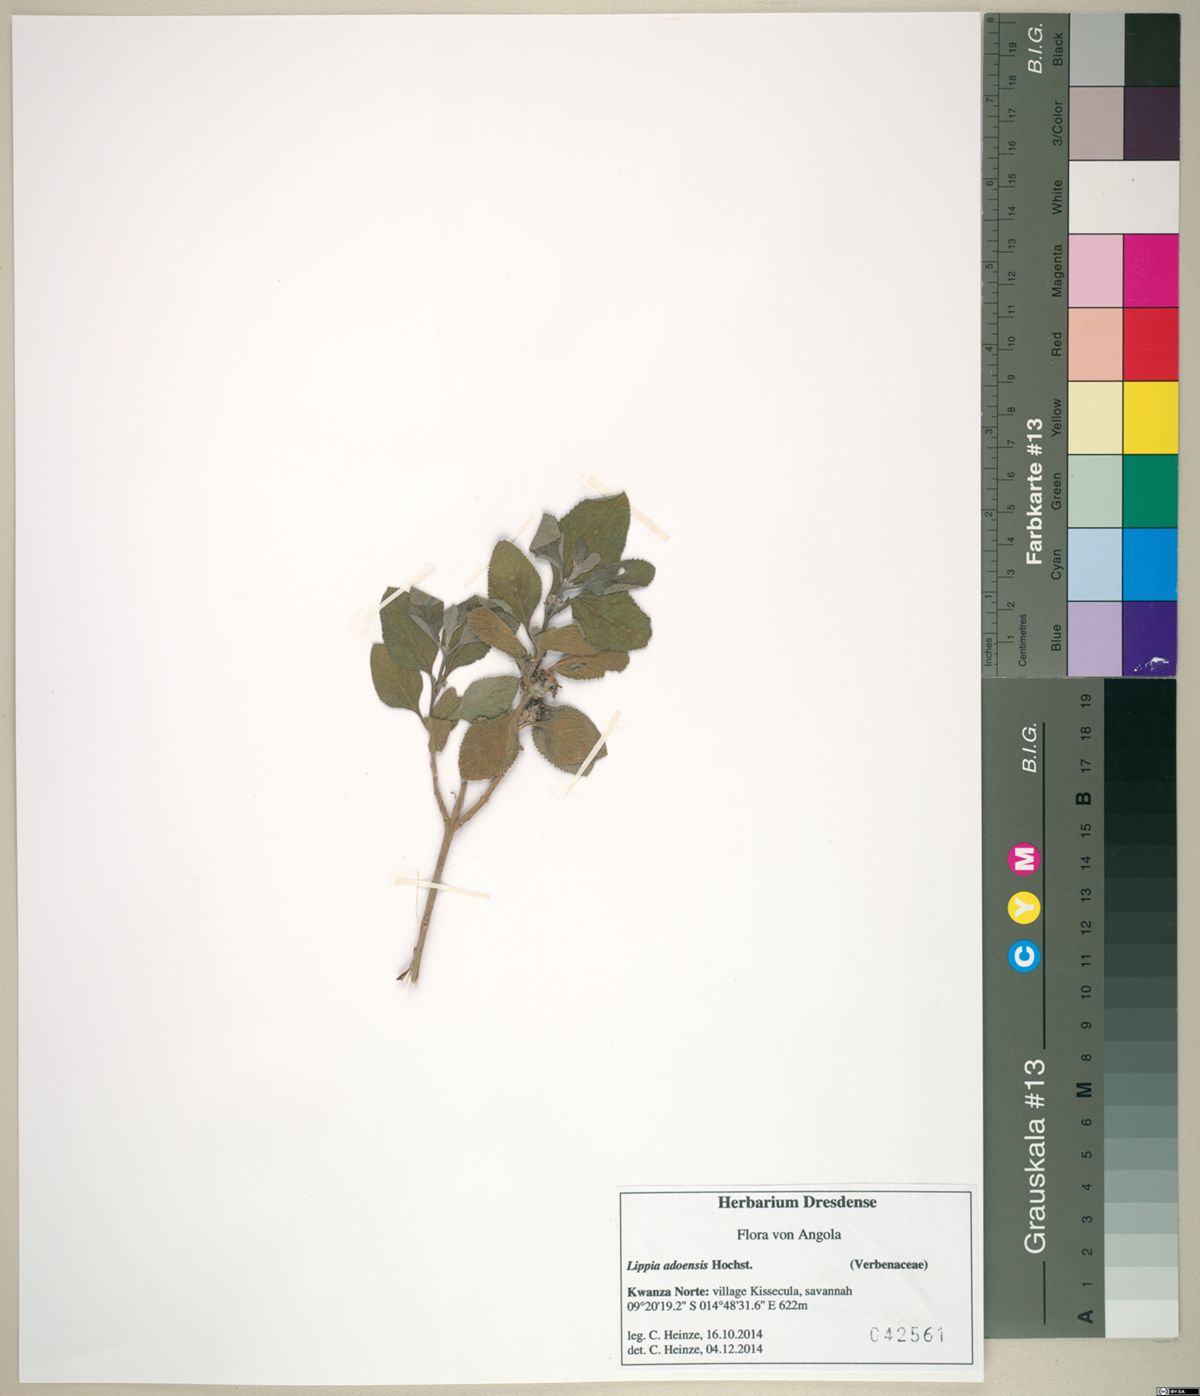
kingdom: Plantae
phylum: Tracheophyta
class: Magnoliopsida
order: Lamiales
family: Verbenaceae
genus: Lantana
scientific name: Lantana angolensis
